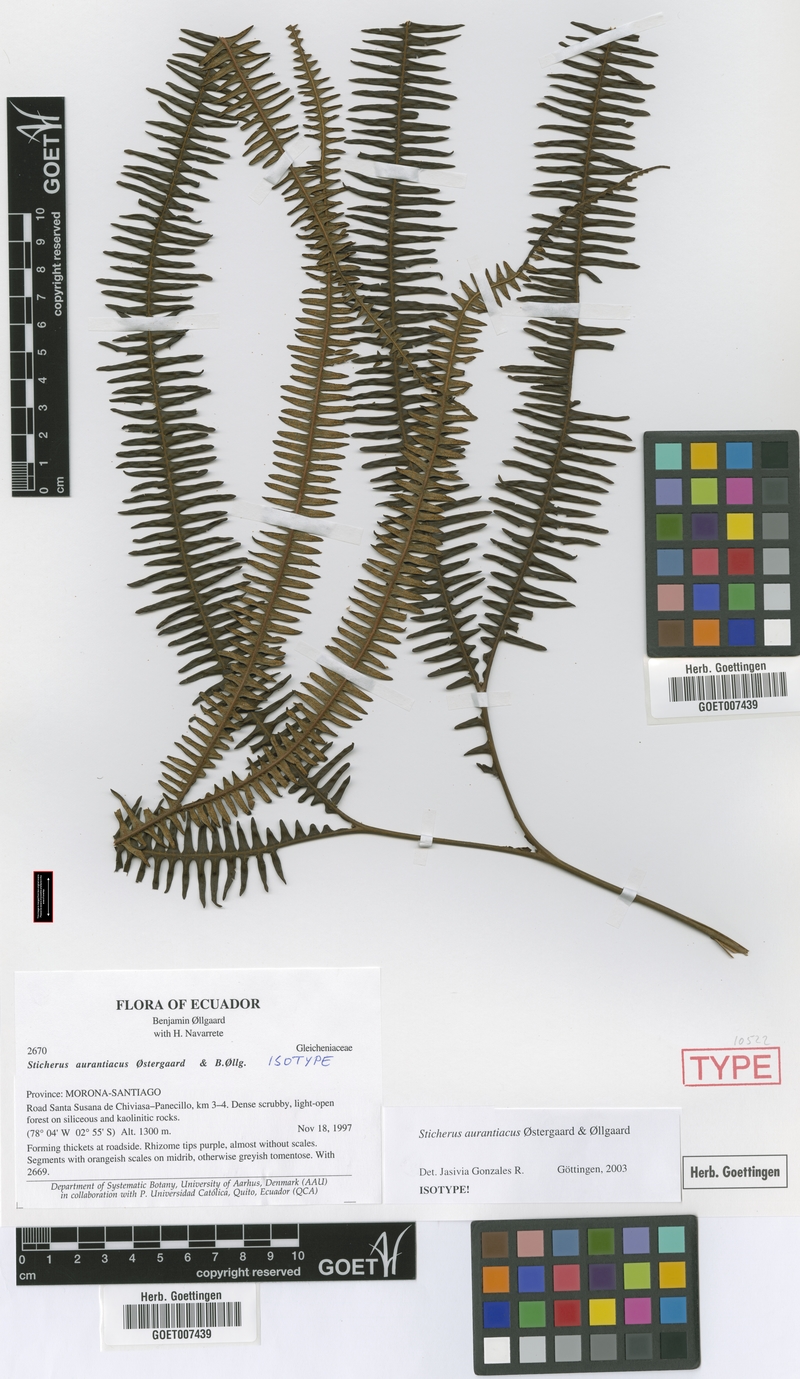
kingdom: Plantae
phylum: Tracheophyta
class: Polypodiopsida
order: Gleicheniales
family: Gleicheniaceae
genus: Sticherus
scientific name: Sticherus aurantiacus
